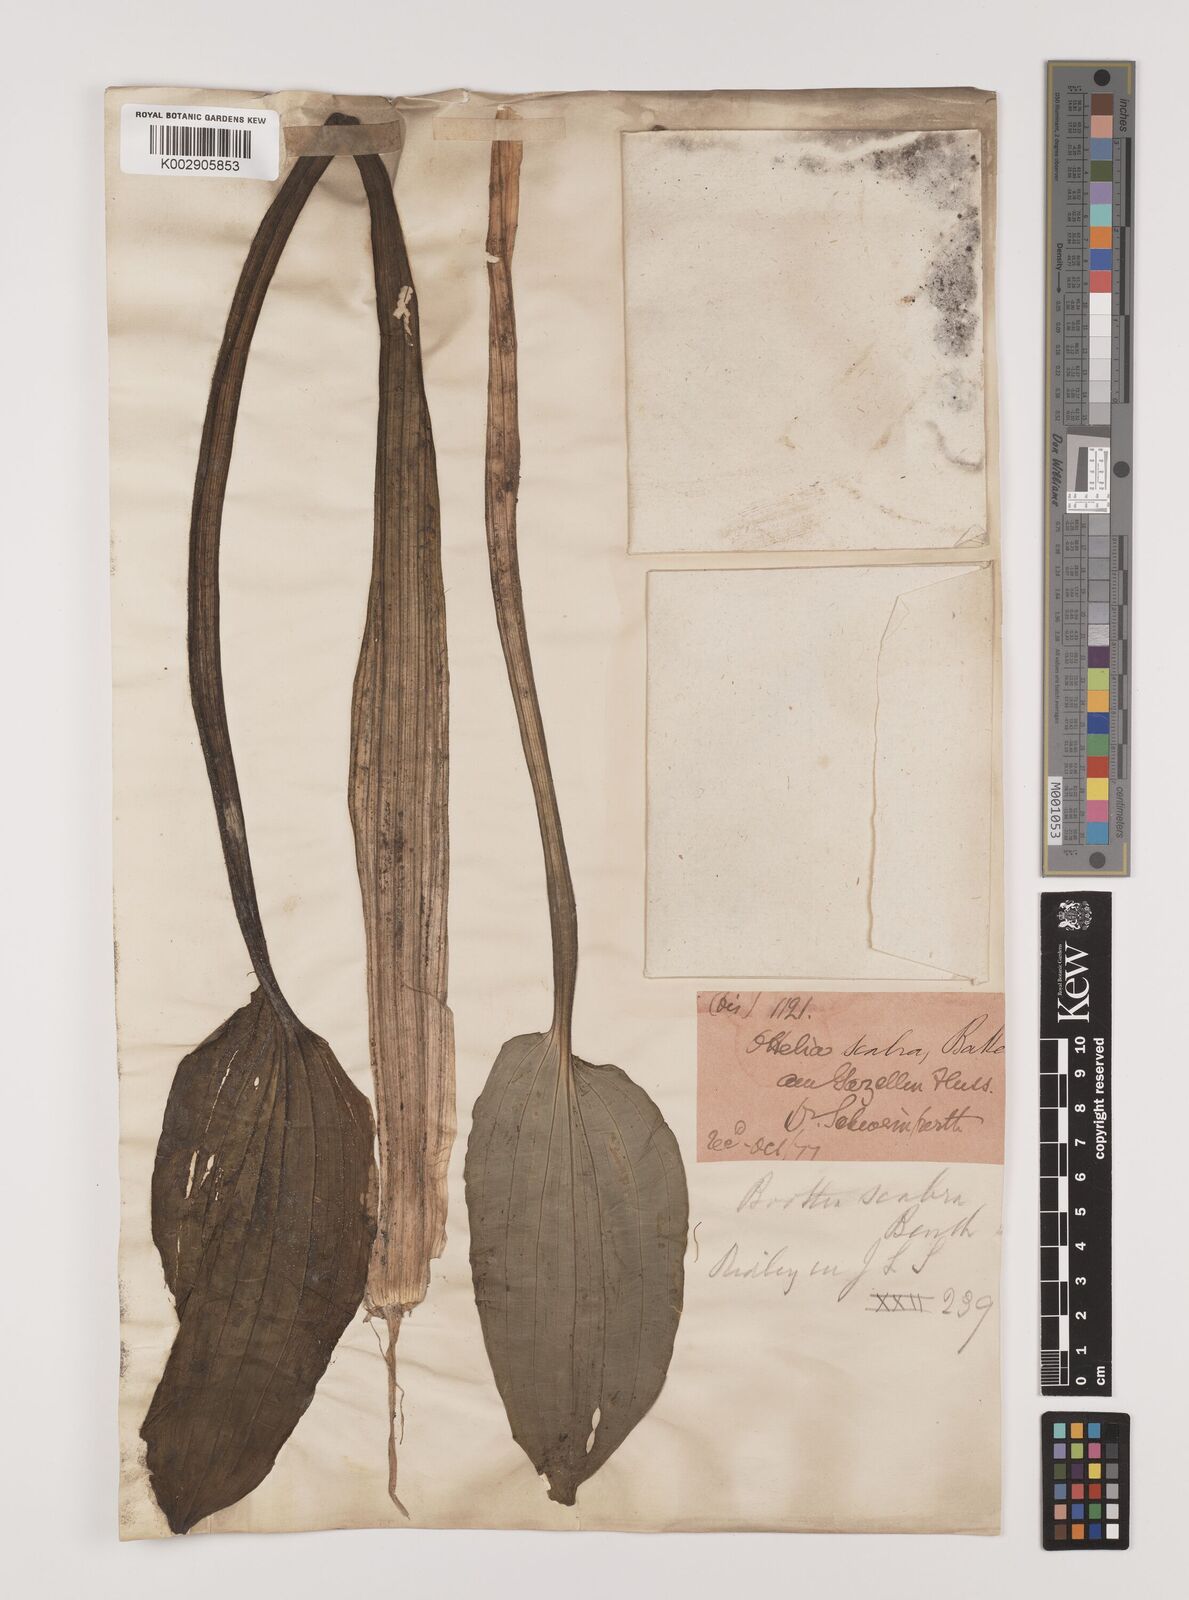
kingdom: Plantae
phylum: Tracheophyta
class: Liliopsida
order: Alismatales
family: Hydrocharitaceae
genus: Ottelia
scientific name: Ottelia scabra
